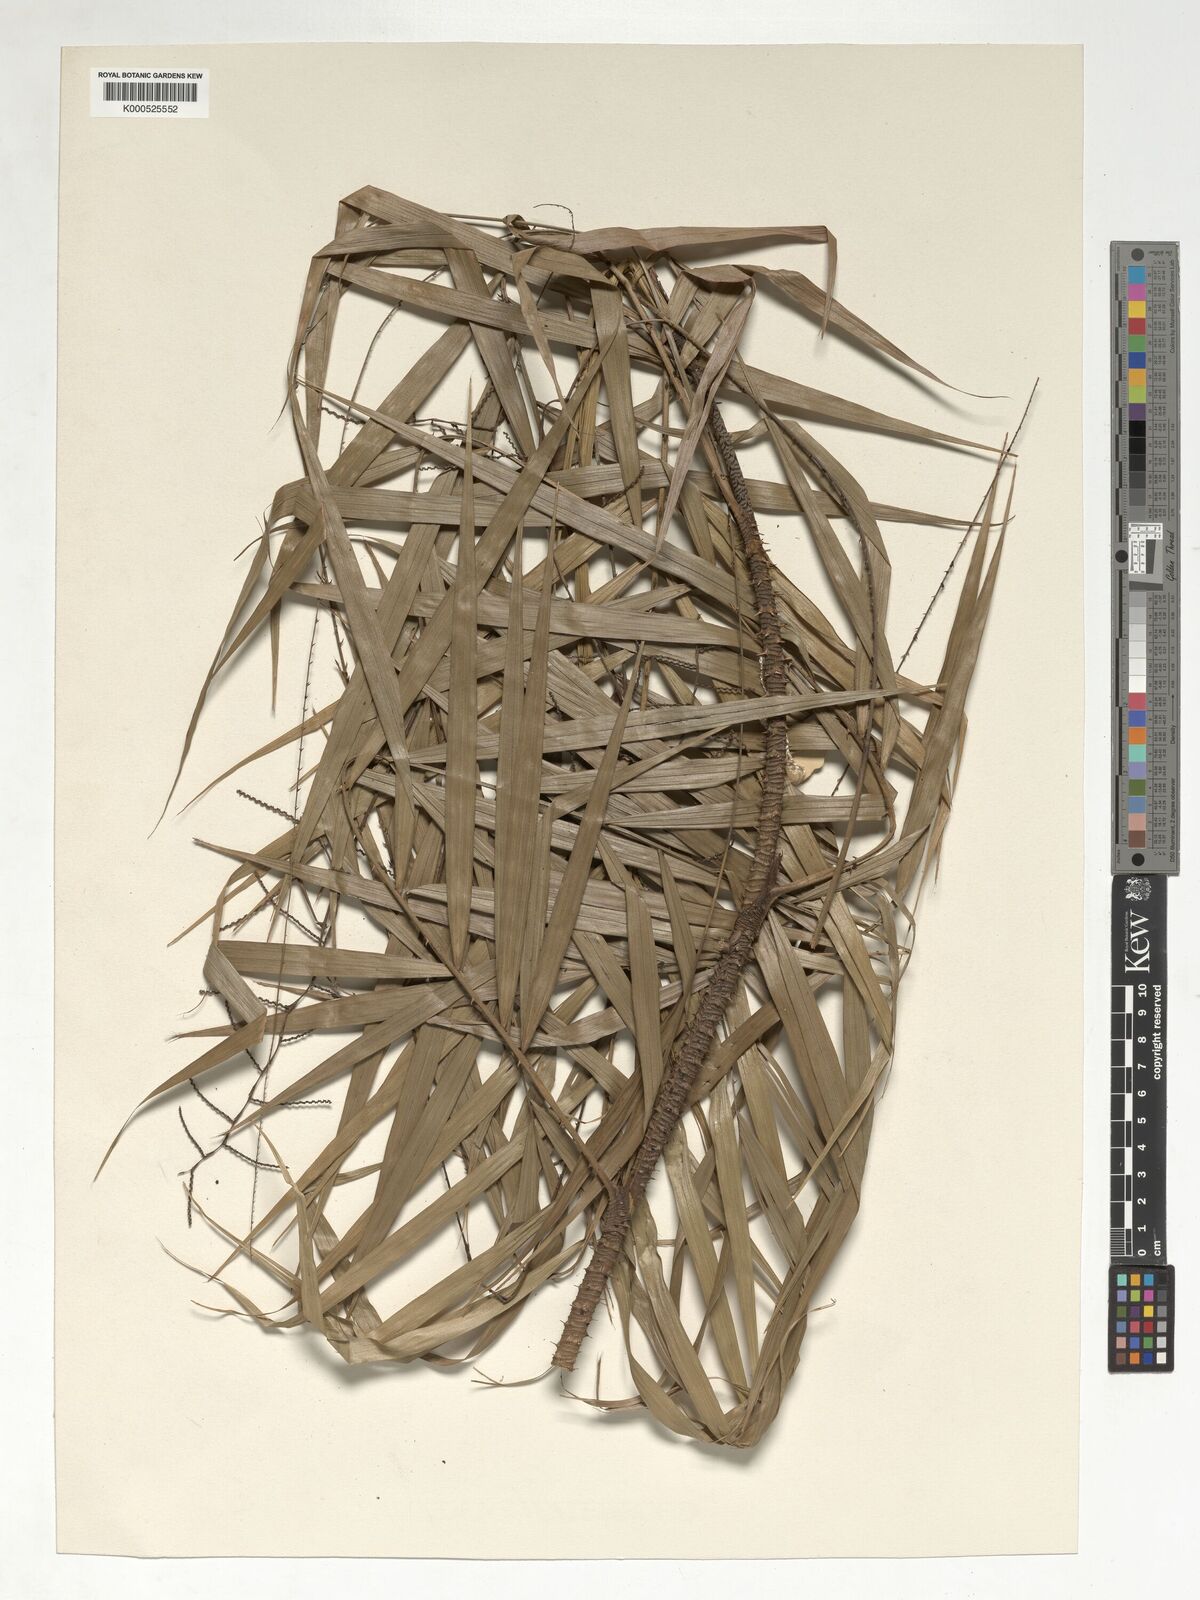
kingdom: Plantae
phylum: Tracheophyta
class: Liliopsida
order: Arecales
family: Arecaceae
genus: Calamus
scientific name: Calamus zonatus
